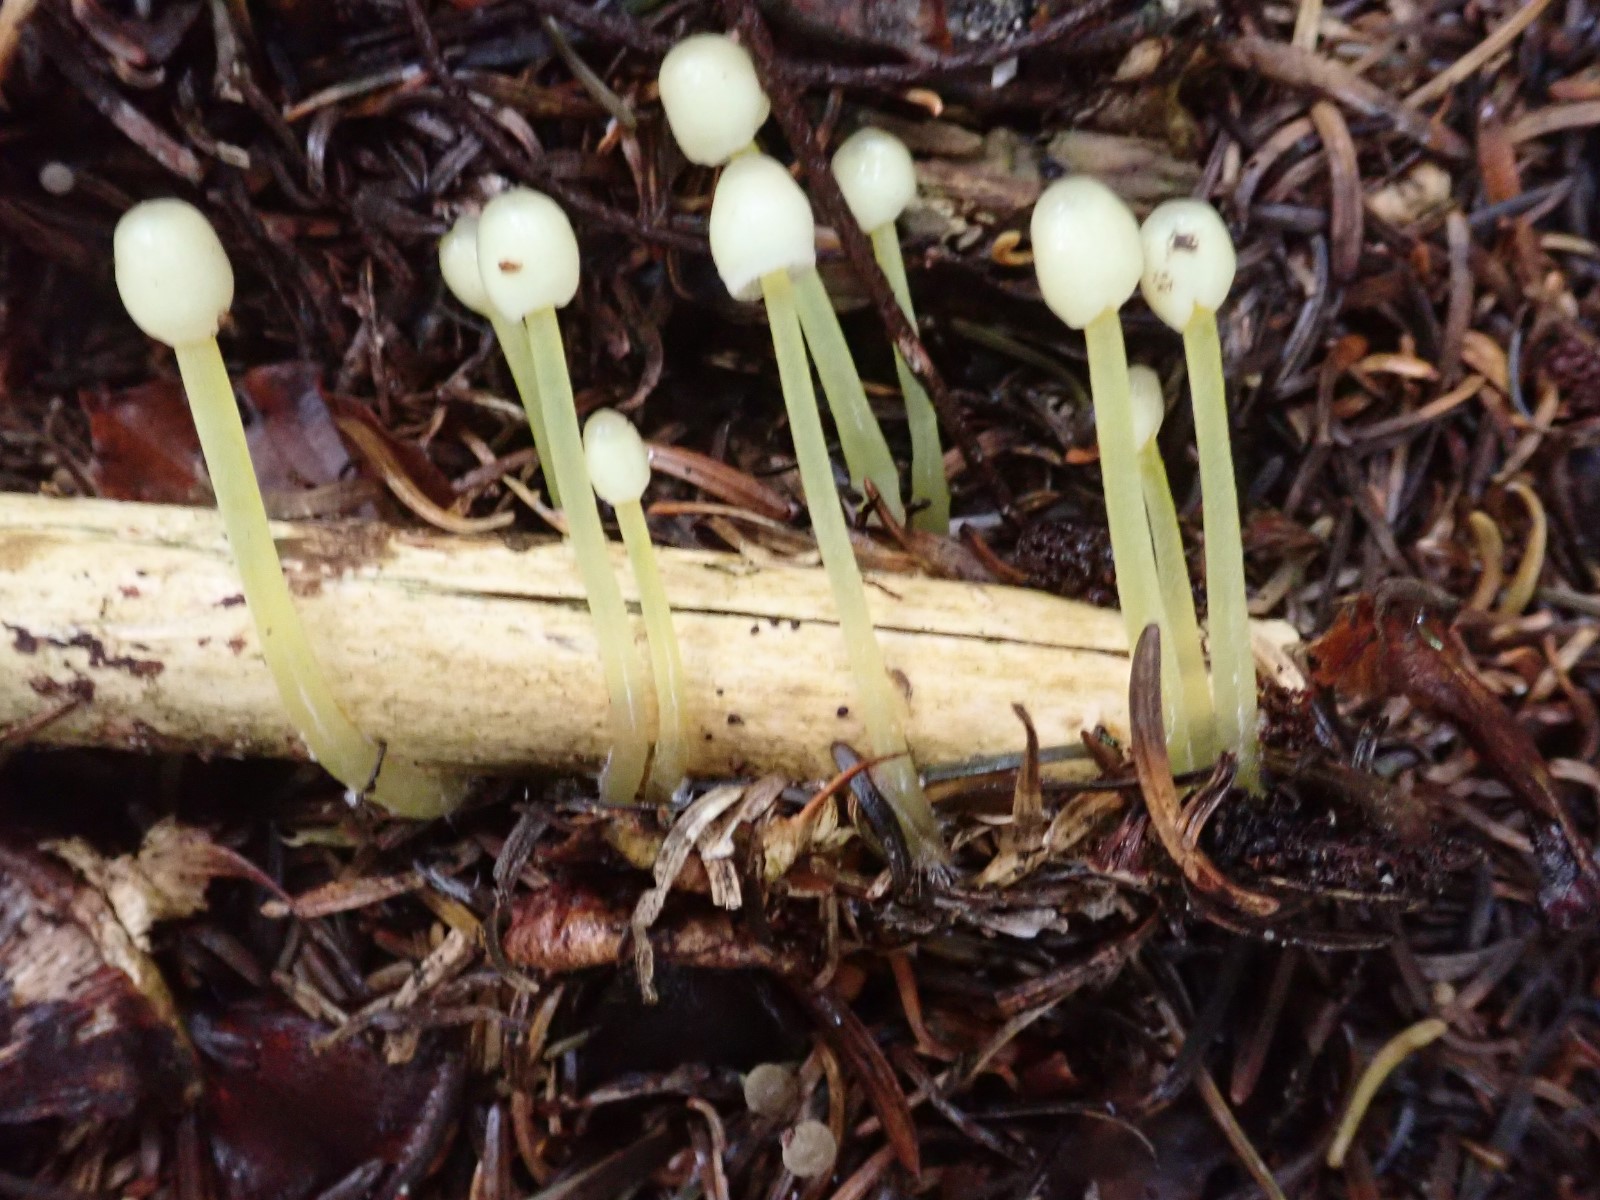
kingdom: Fungi
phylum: Basidiomycota
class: Agaricomycetes
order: Agaricales
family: Mycenaceae
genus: Mycena
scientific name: Mycena epipterygia
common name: gulstokket huesvamp
